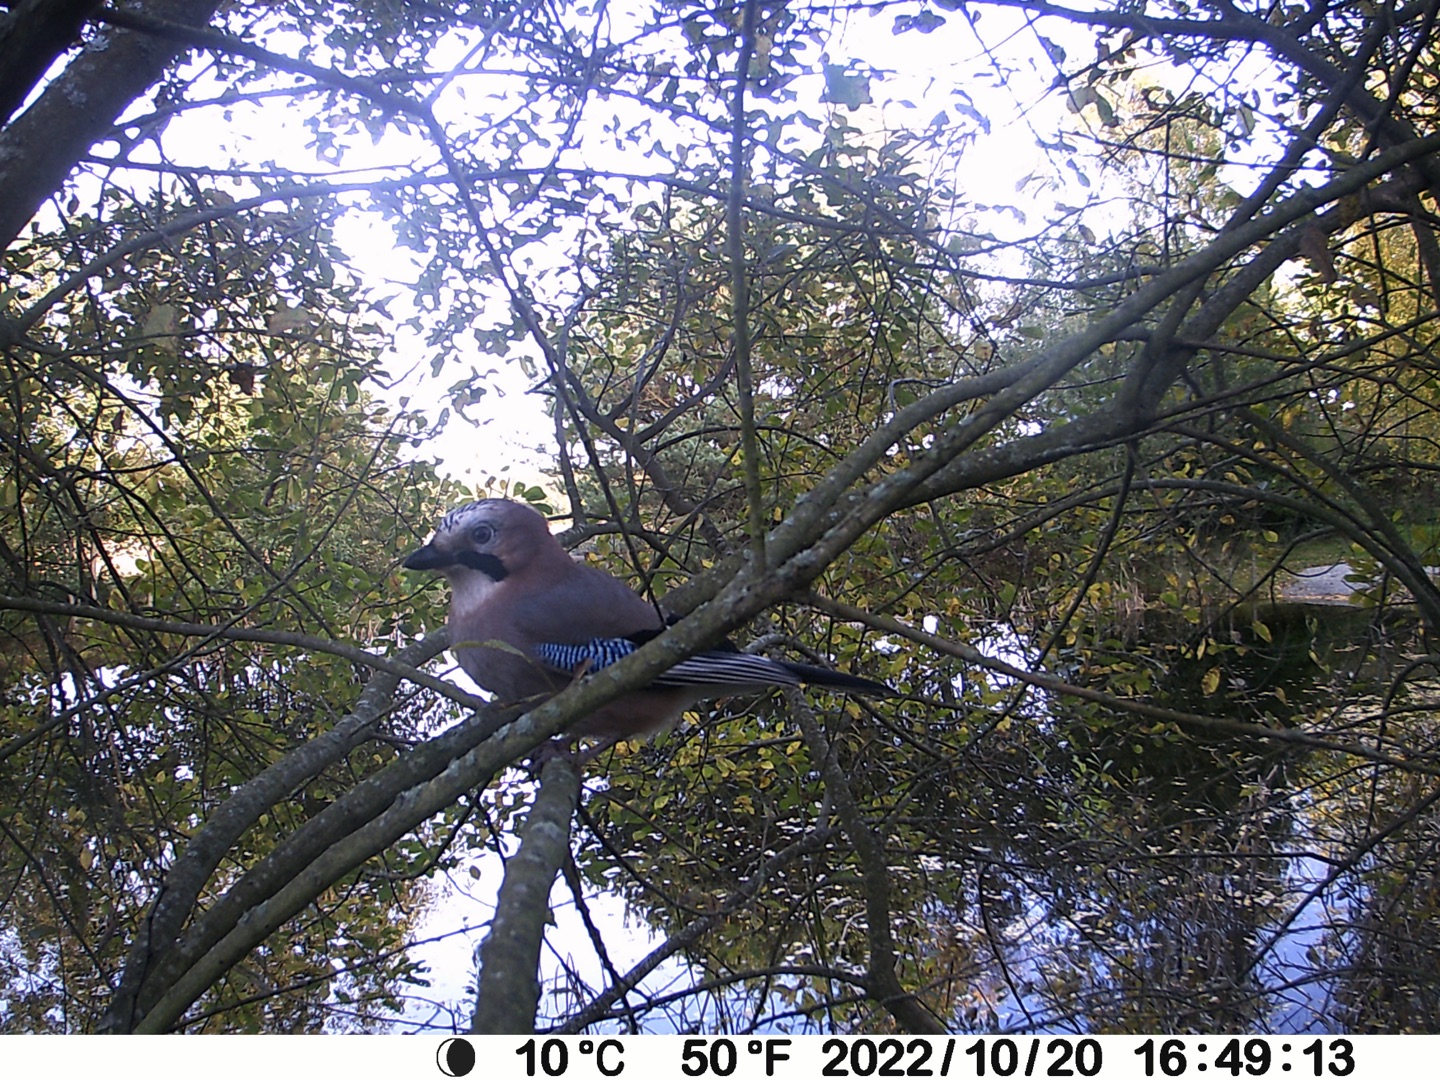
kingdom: Animalia
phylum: Chordata
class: Aves
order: Passeriformes
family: Corvidae
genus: Garrulus
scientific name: Garrulus glandarius
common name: Skovskade
